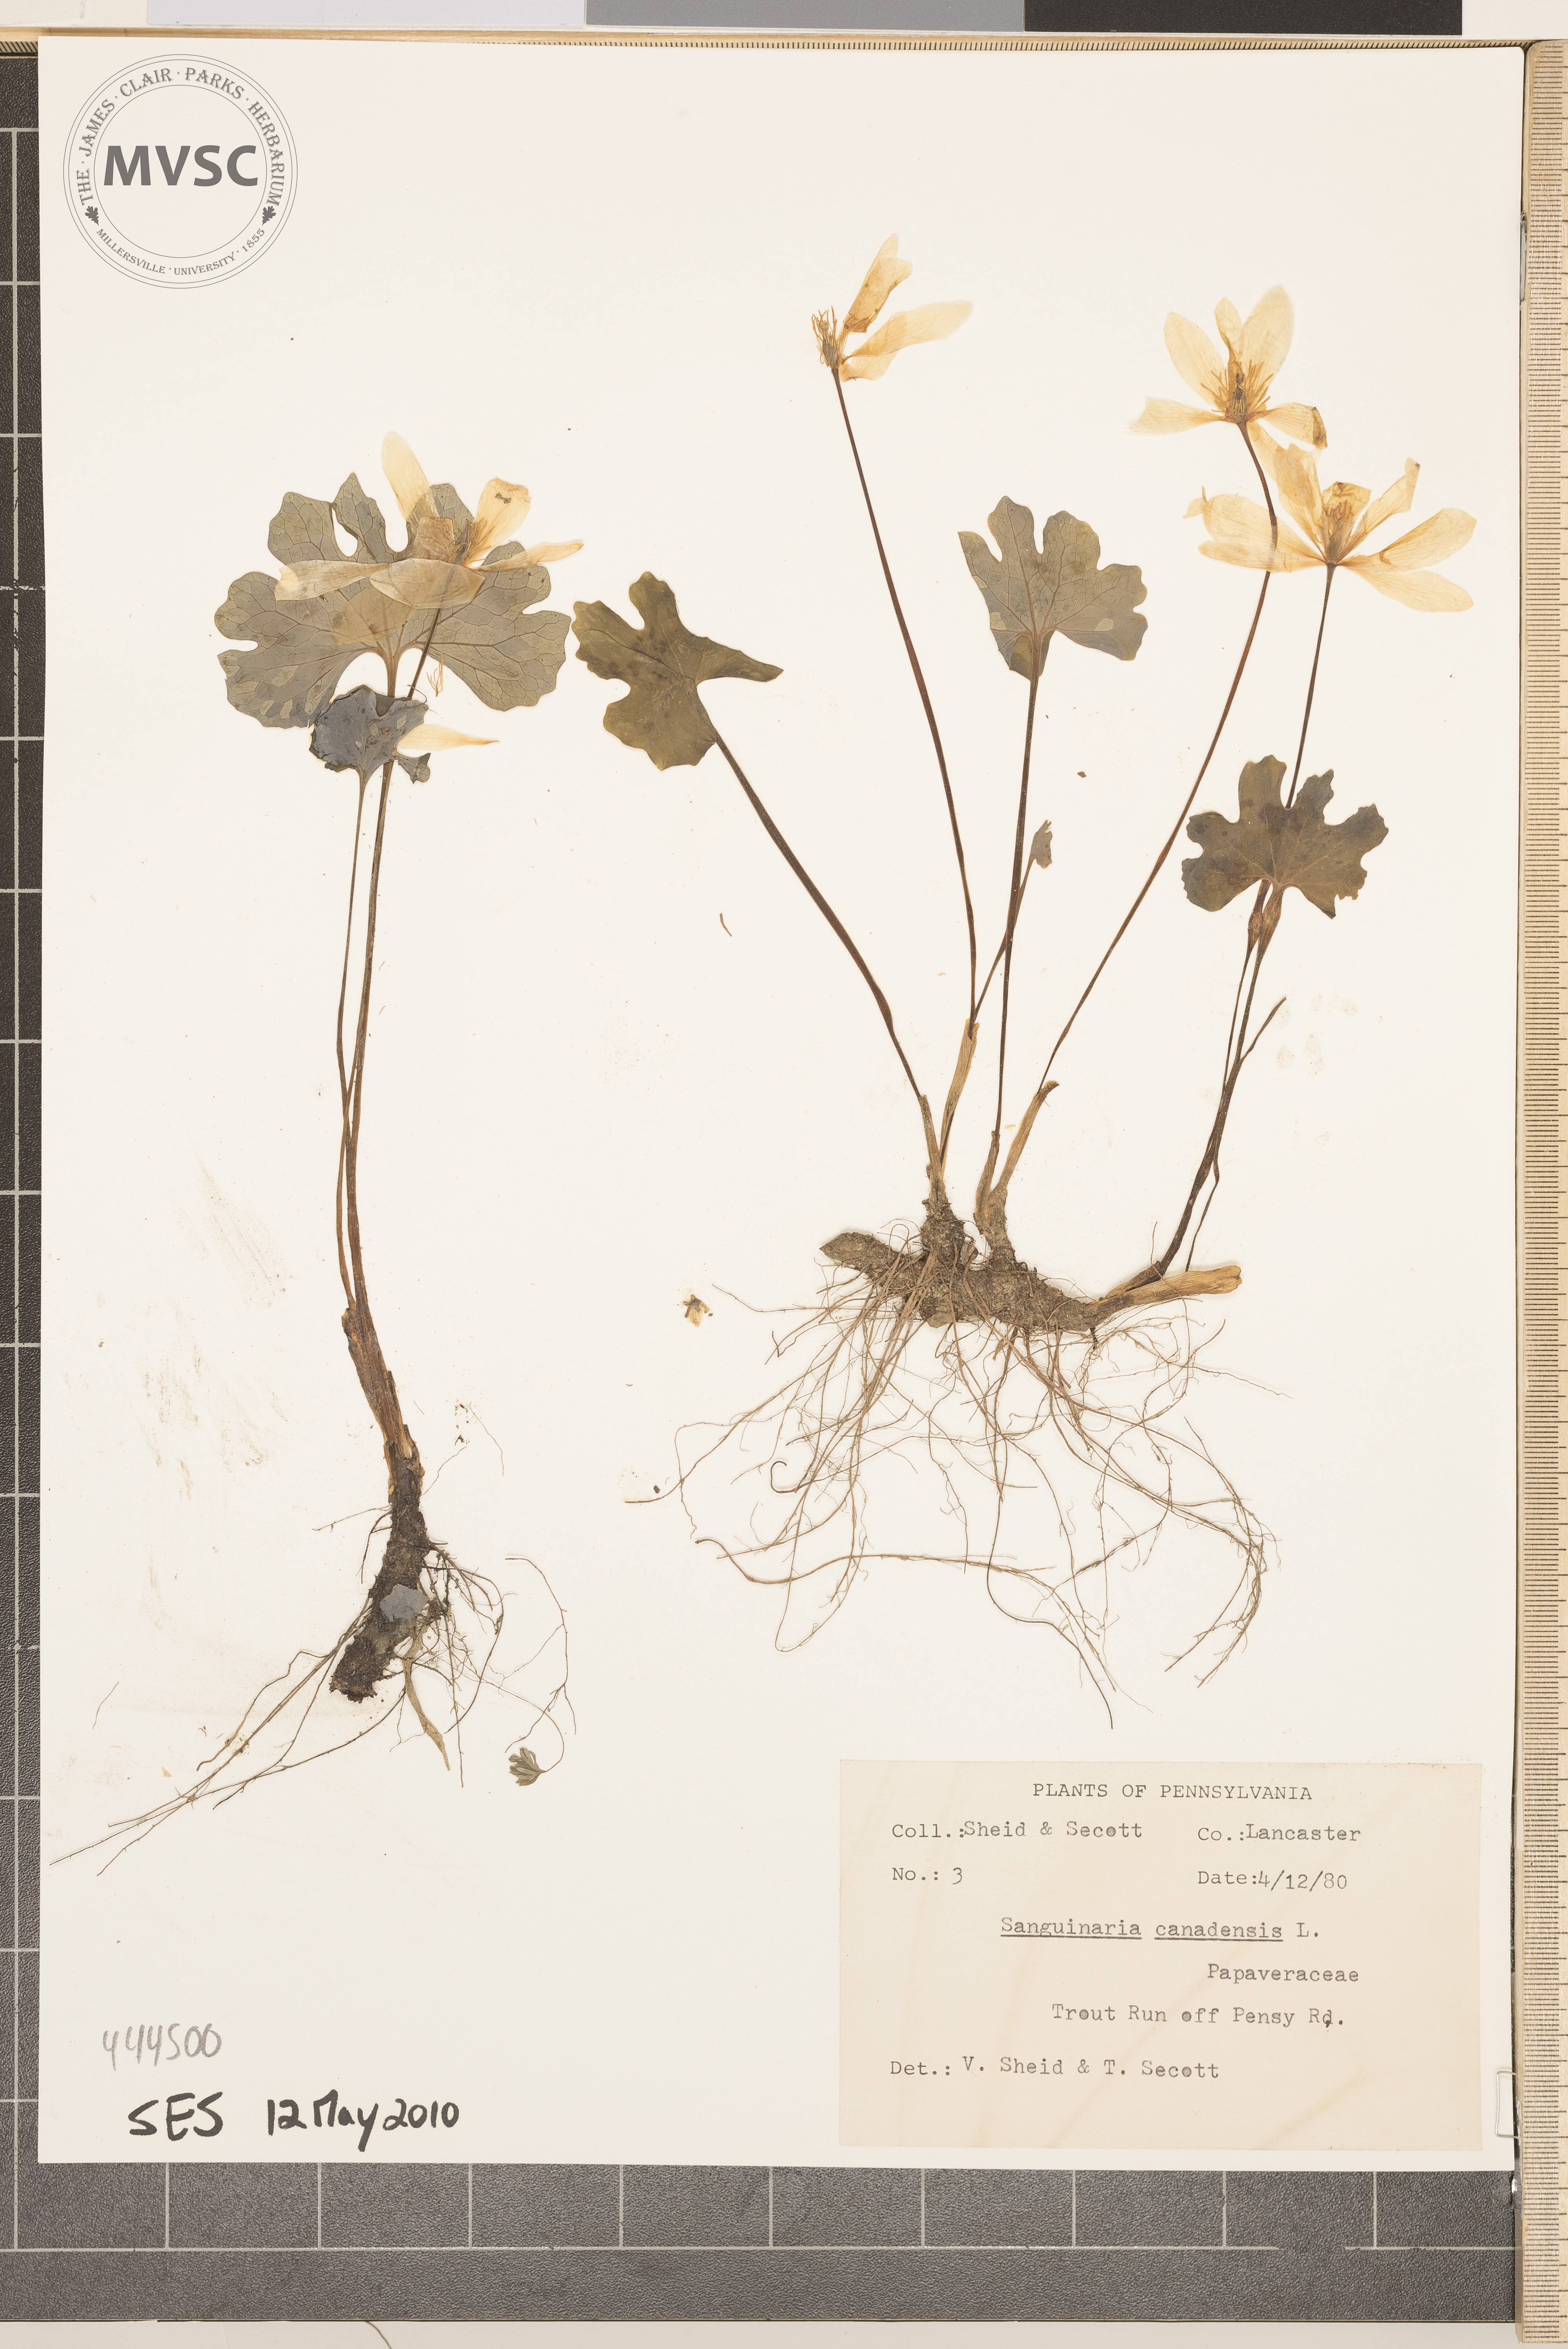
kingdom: Plantae
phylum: Tracheophyta
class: Magnoliopsida
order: Ranunculales
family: Papaveraceae
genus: Sanguinaria
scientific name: Sanguinaria canadensis
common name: Bloodroot
